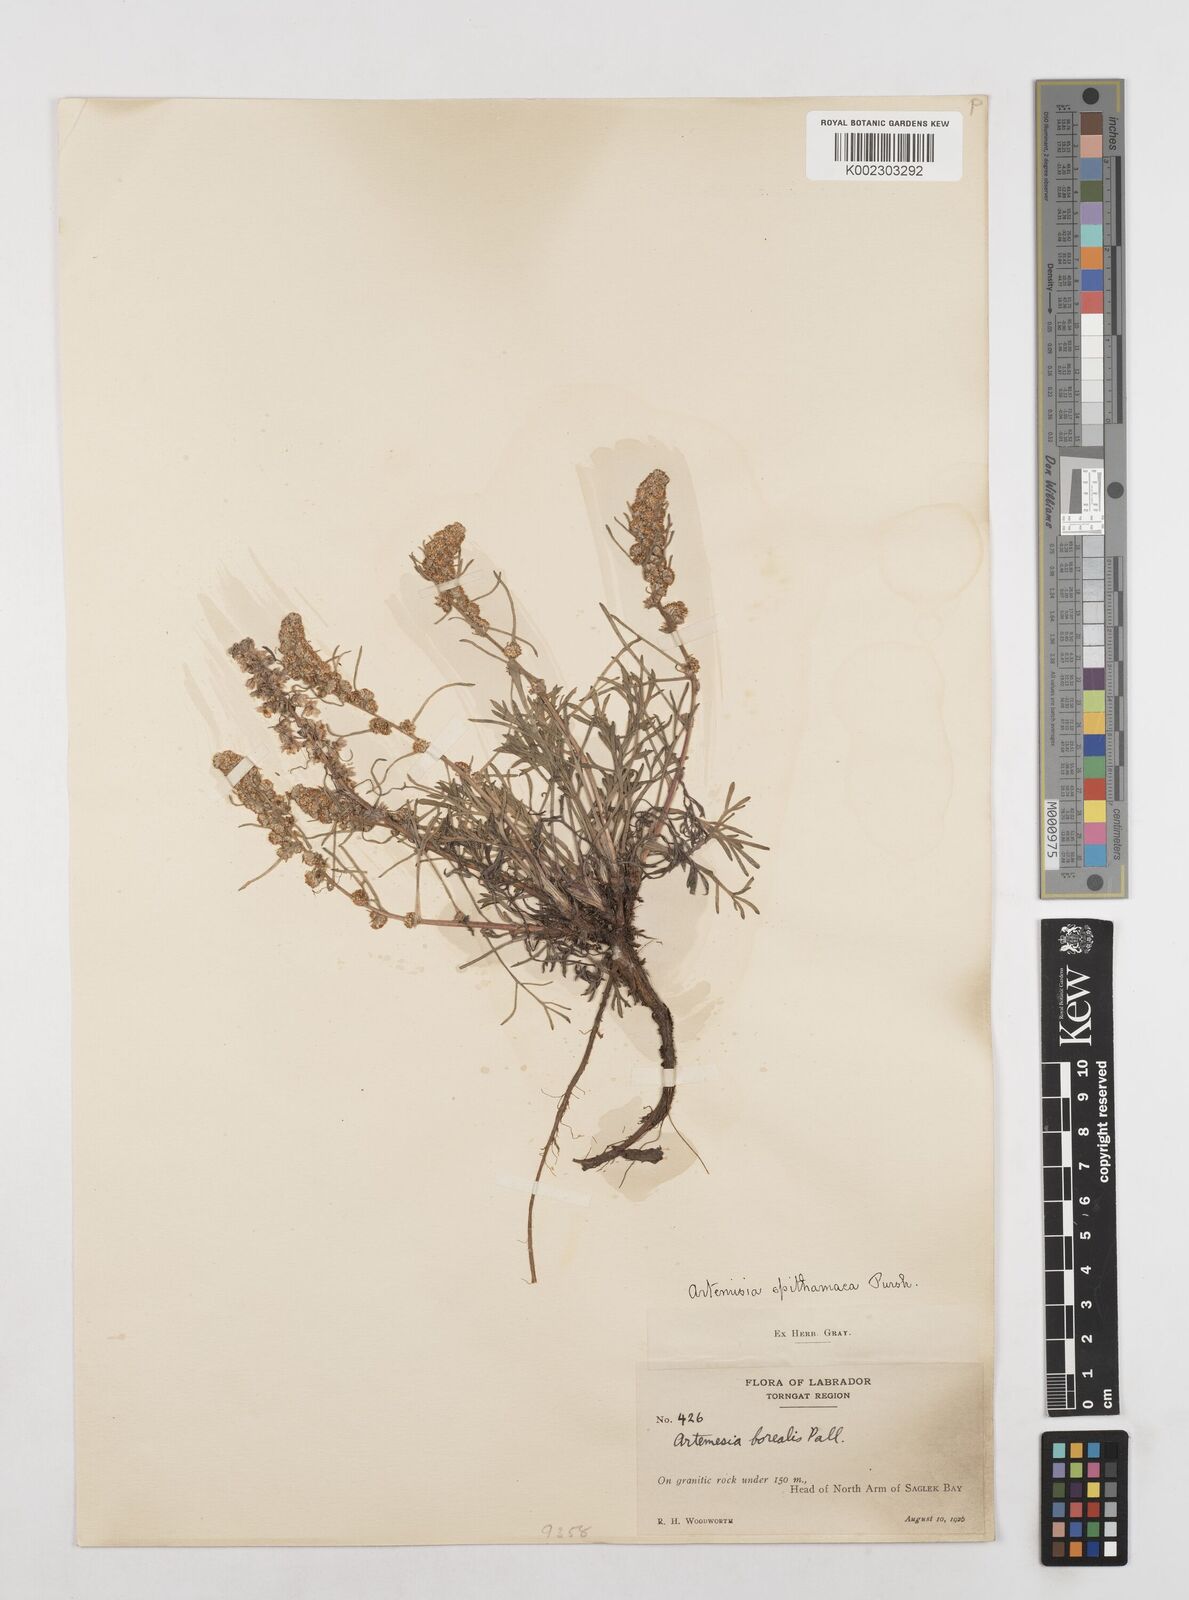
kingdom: Plantae
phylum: Tracheophyta
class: Magnoliopsida
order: Asterales
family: Asteraceae
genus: Artemisia
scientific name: Artemisia borealis
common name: Boreal sage
